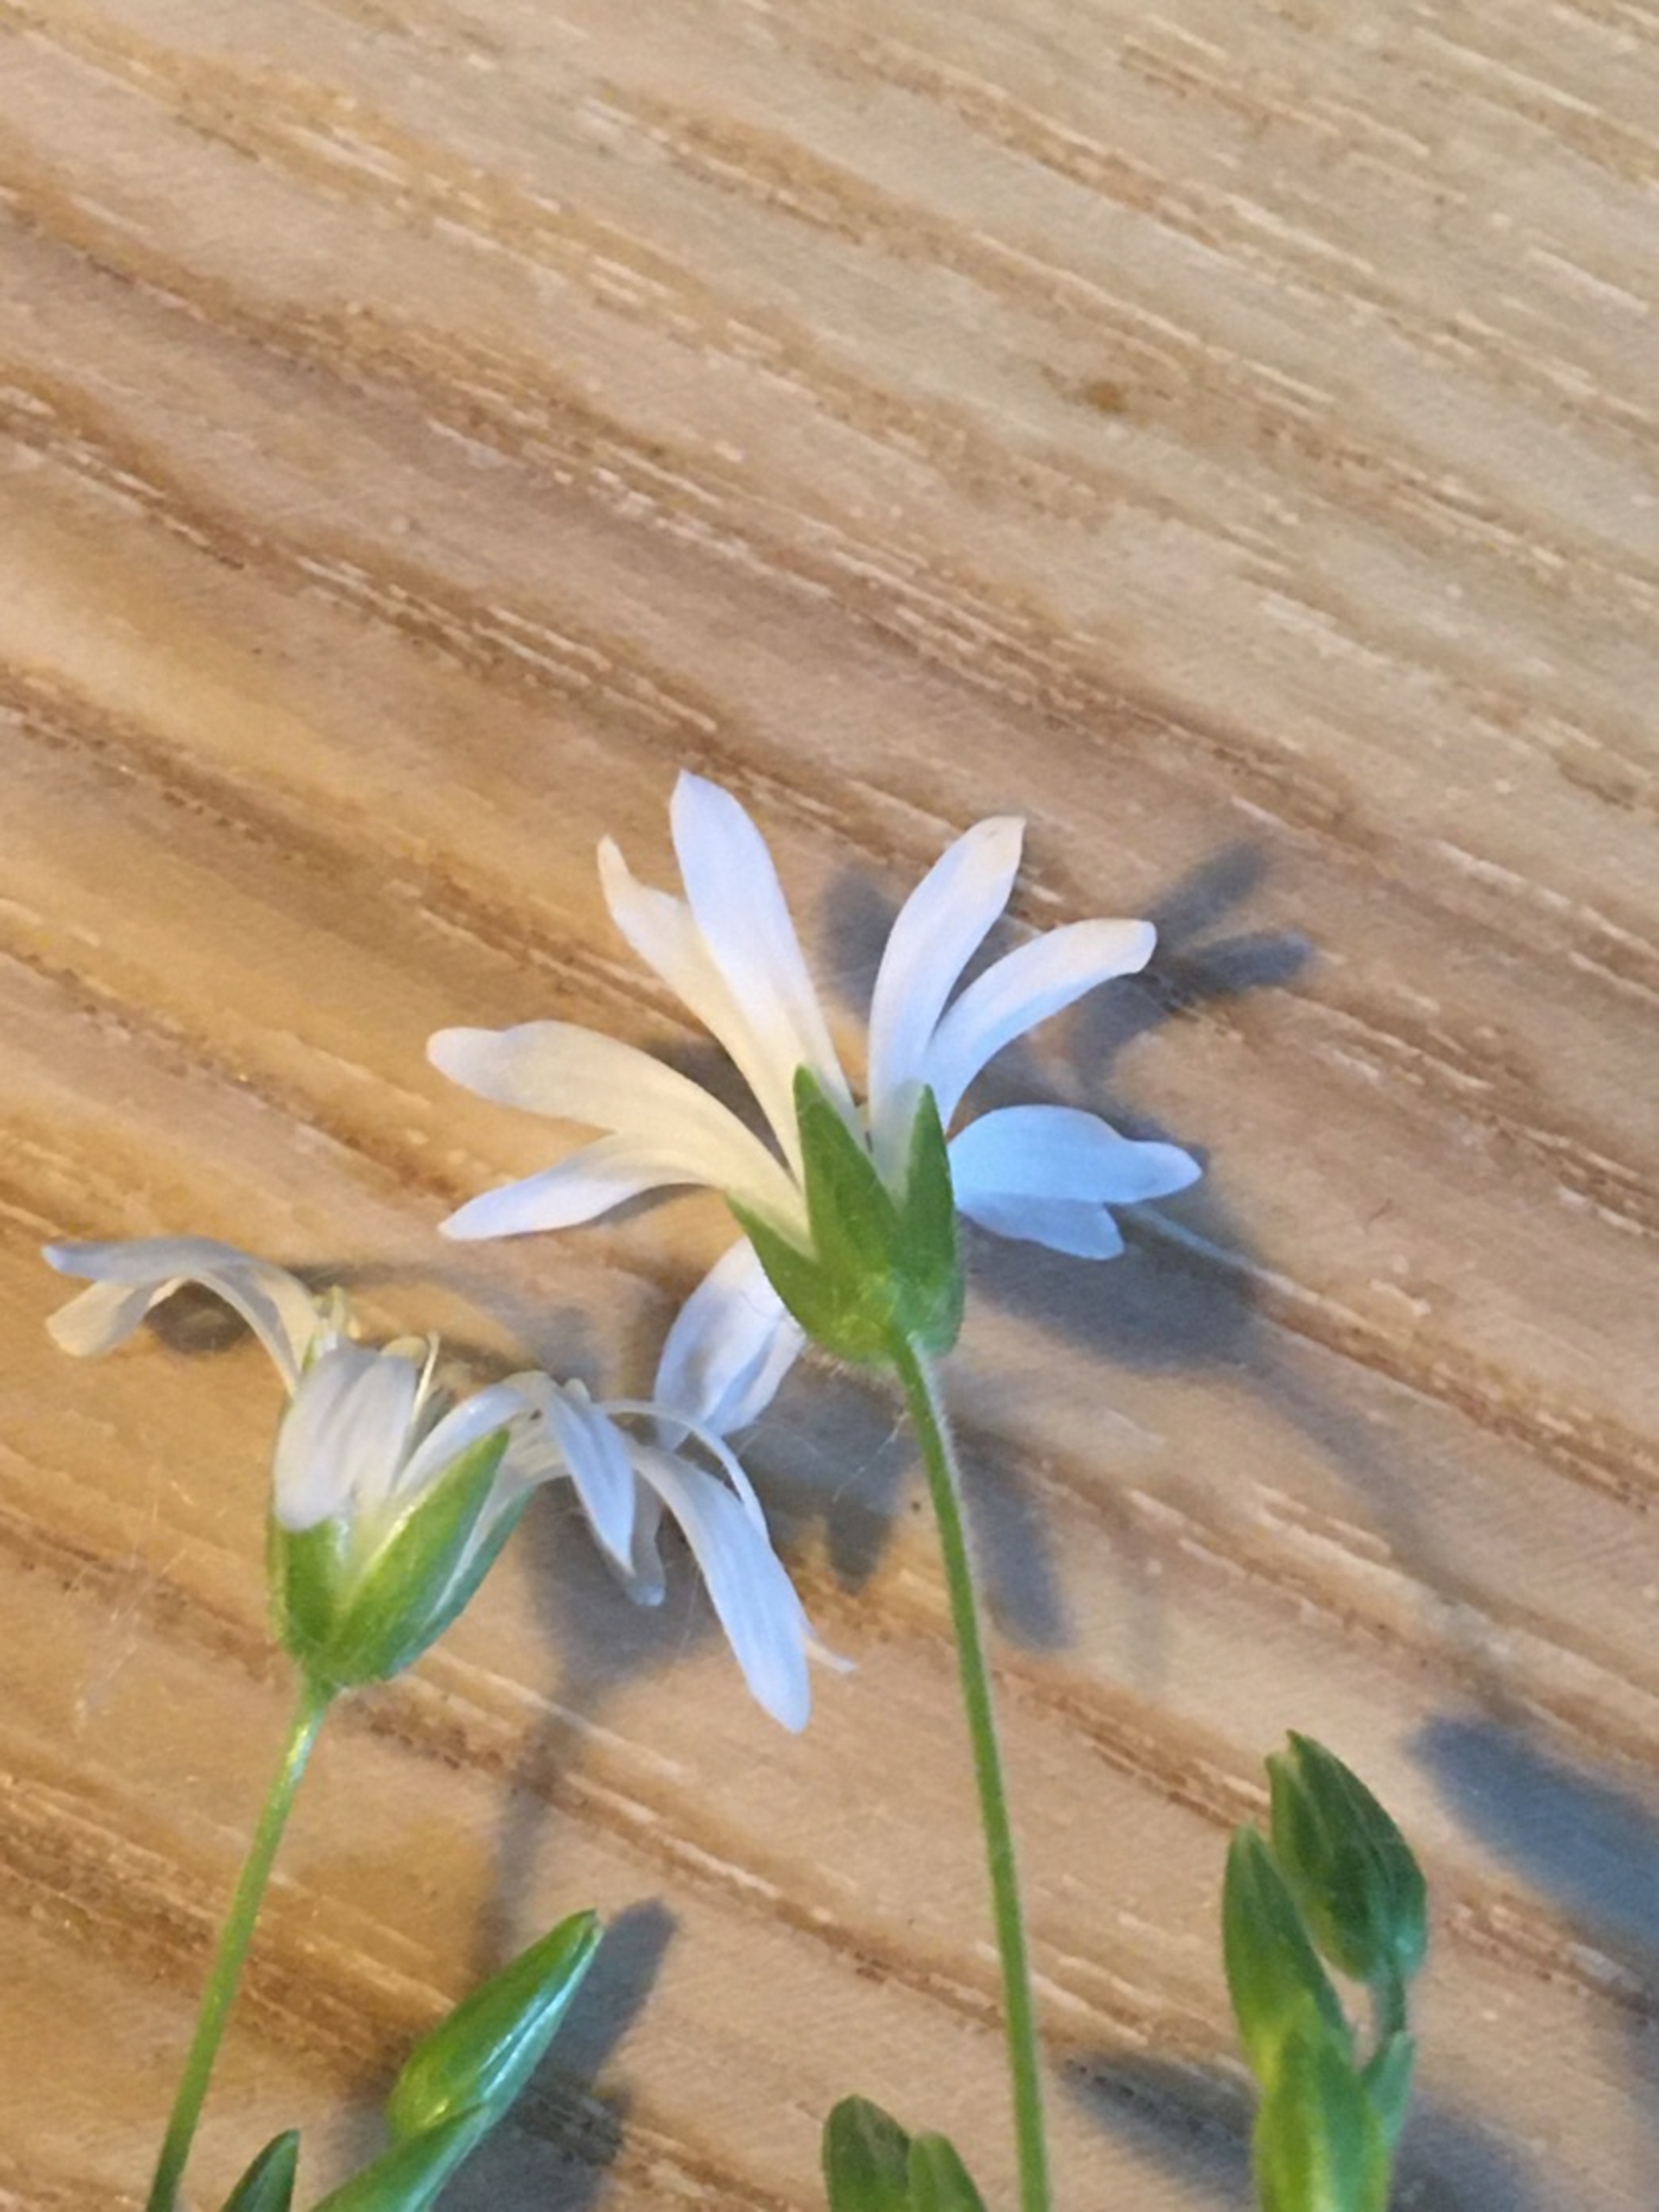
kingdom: Plantae
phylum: Tracheophyta
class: Magnoliopsida
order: Caryophyllales
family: Caryophyllaceae
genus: Stellaria
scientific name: Stellaria glochidisperma
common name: Sydlig lund-fladstjerne
